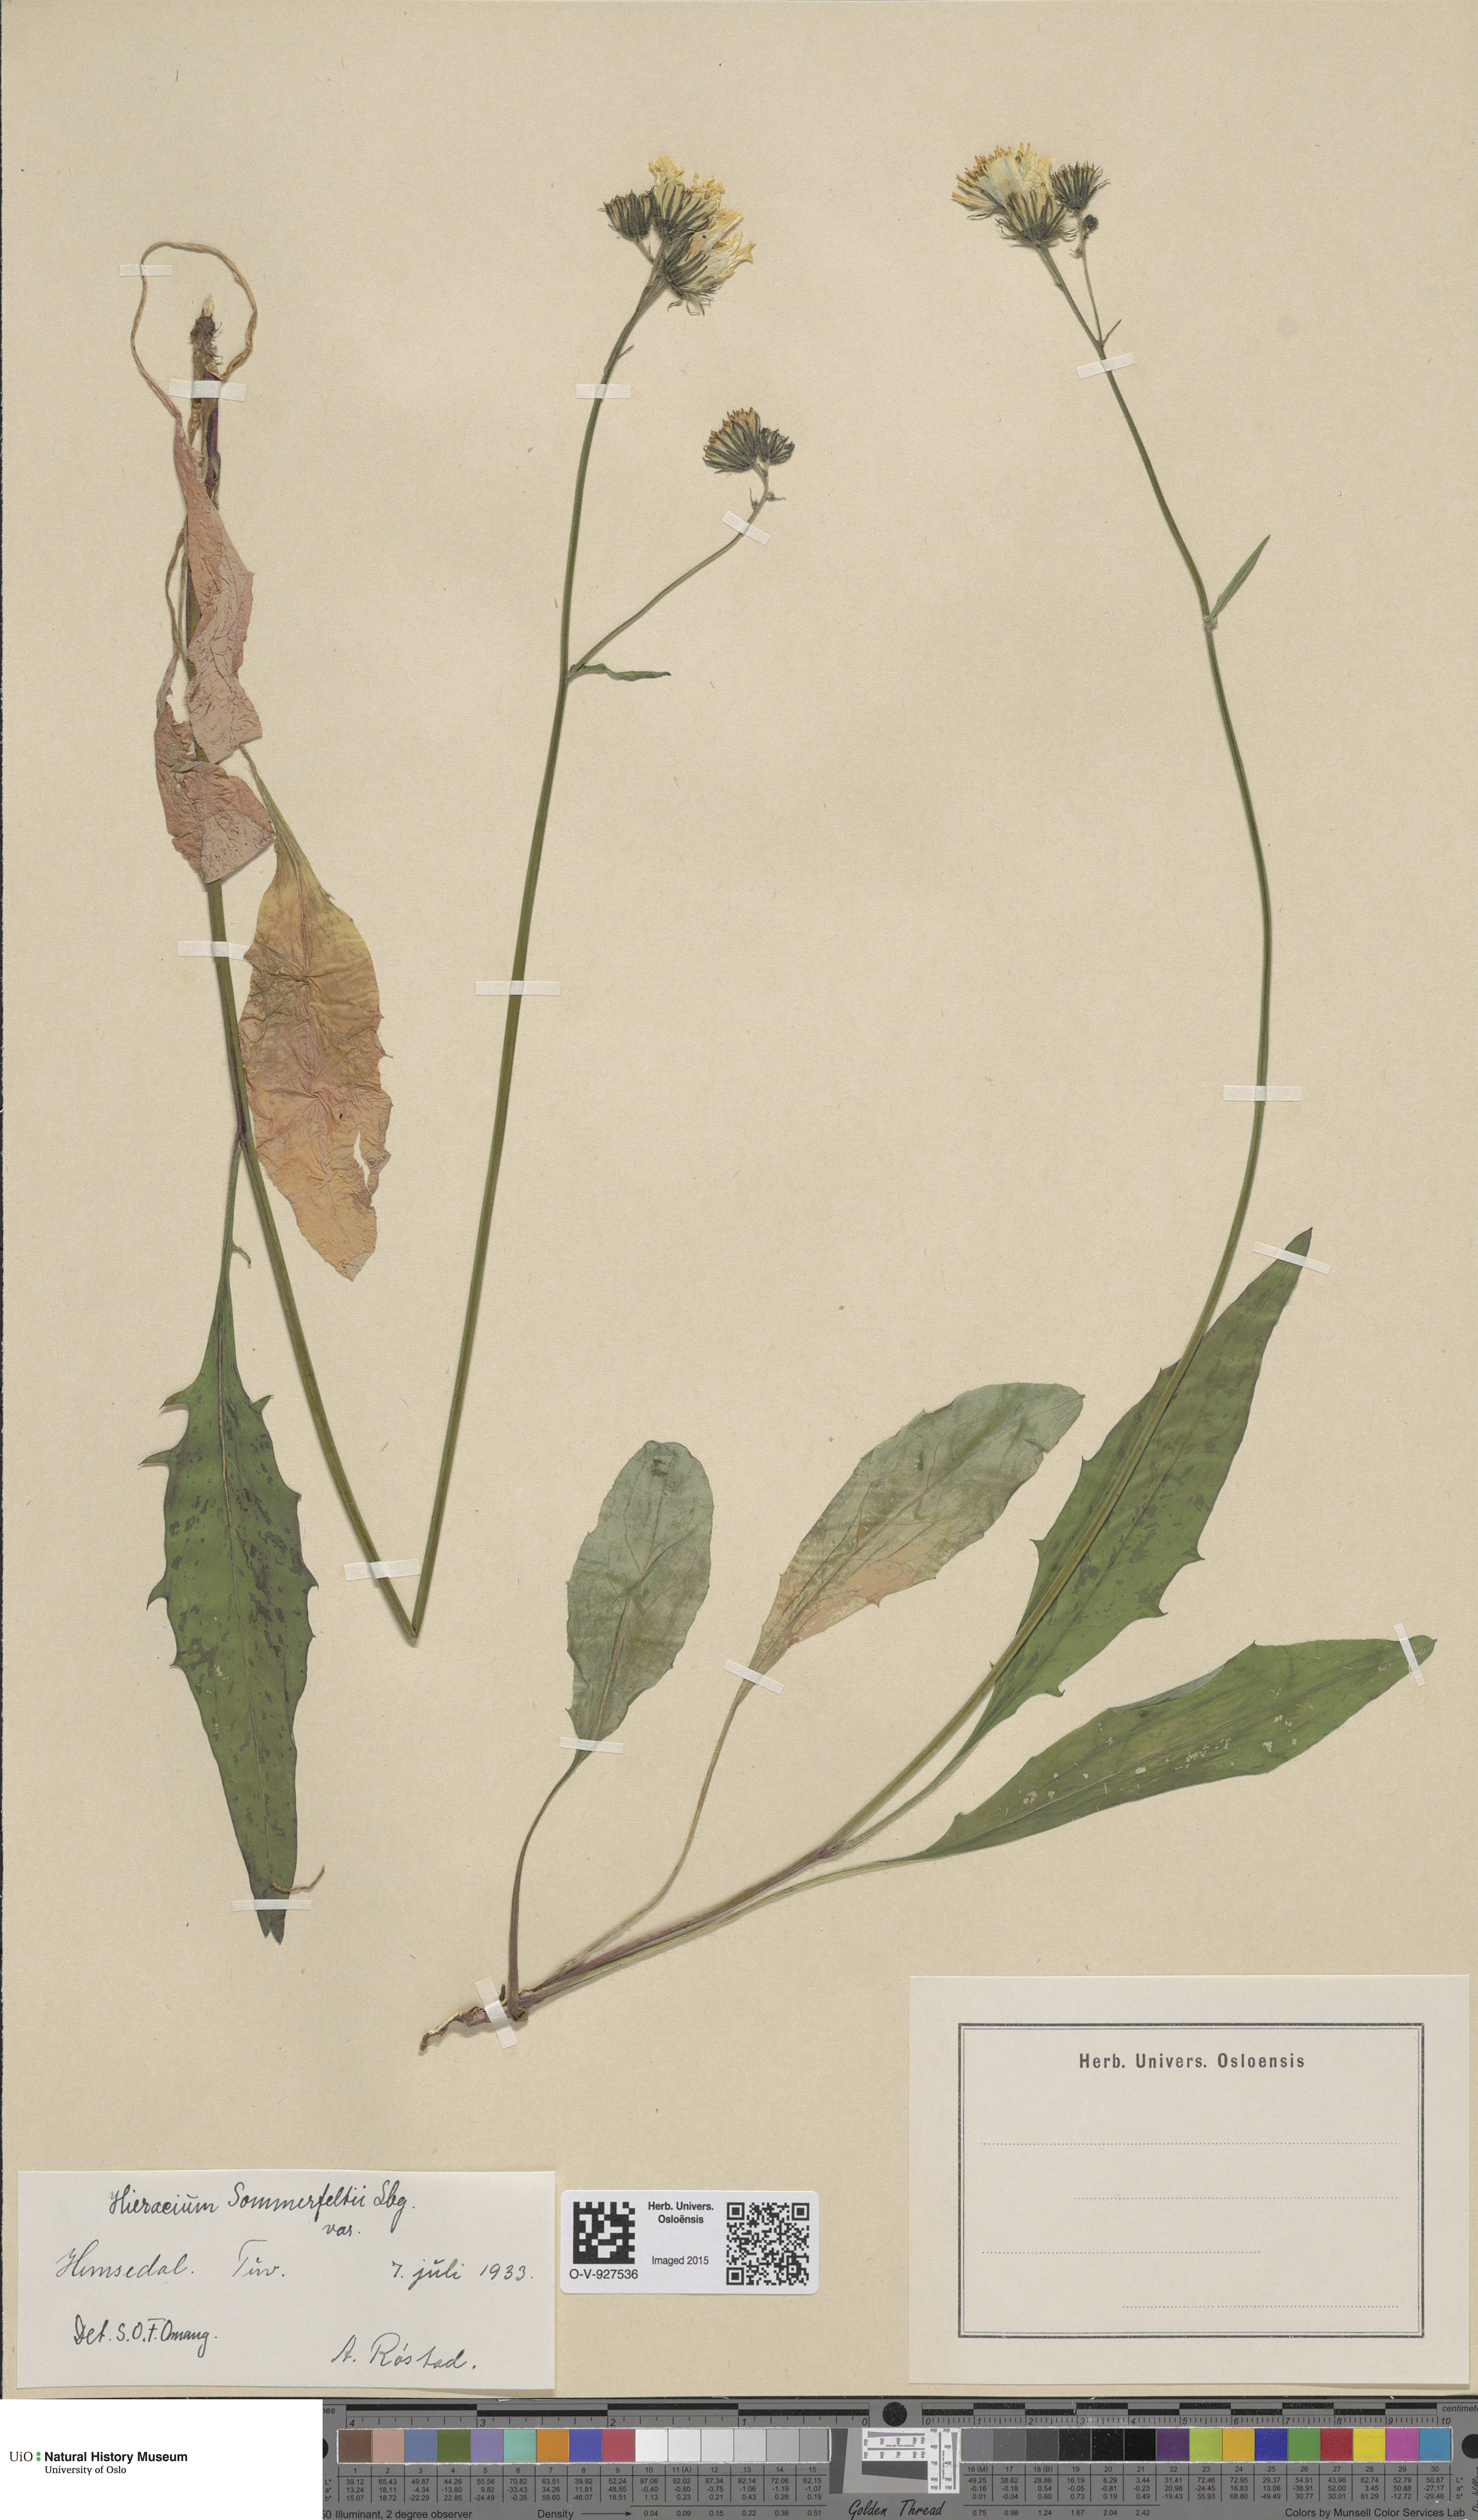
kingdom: Plantae
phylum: Tracheophyta
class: Magnoliopsida
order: Asterales
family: Asteraceae
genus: Hieracium
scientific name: Hieracium sommerfeltii
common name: Sommerfelt's hawkweed
